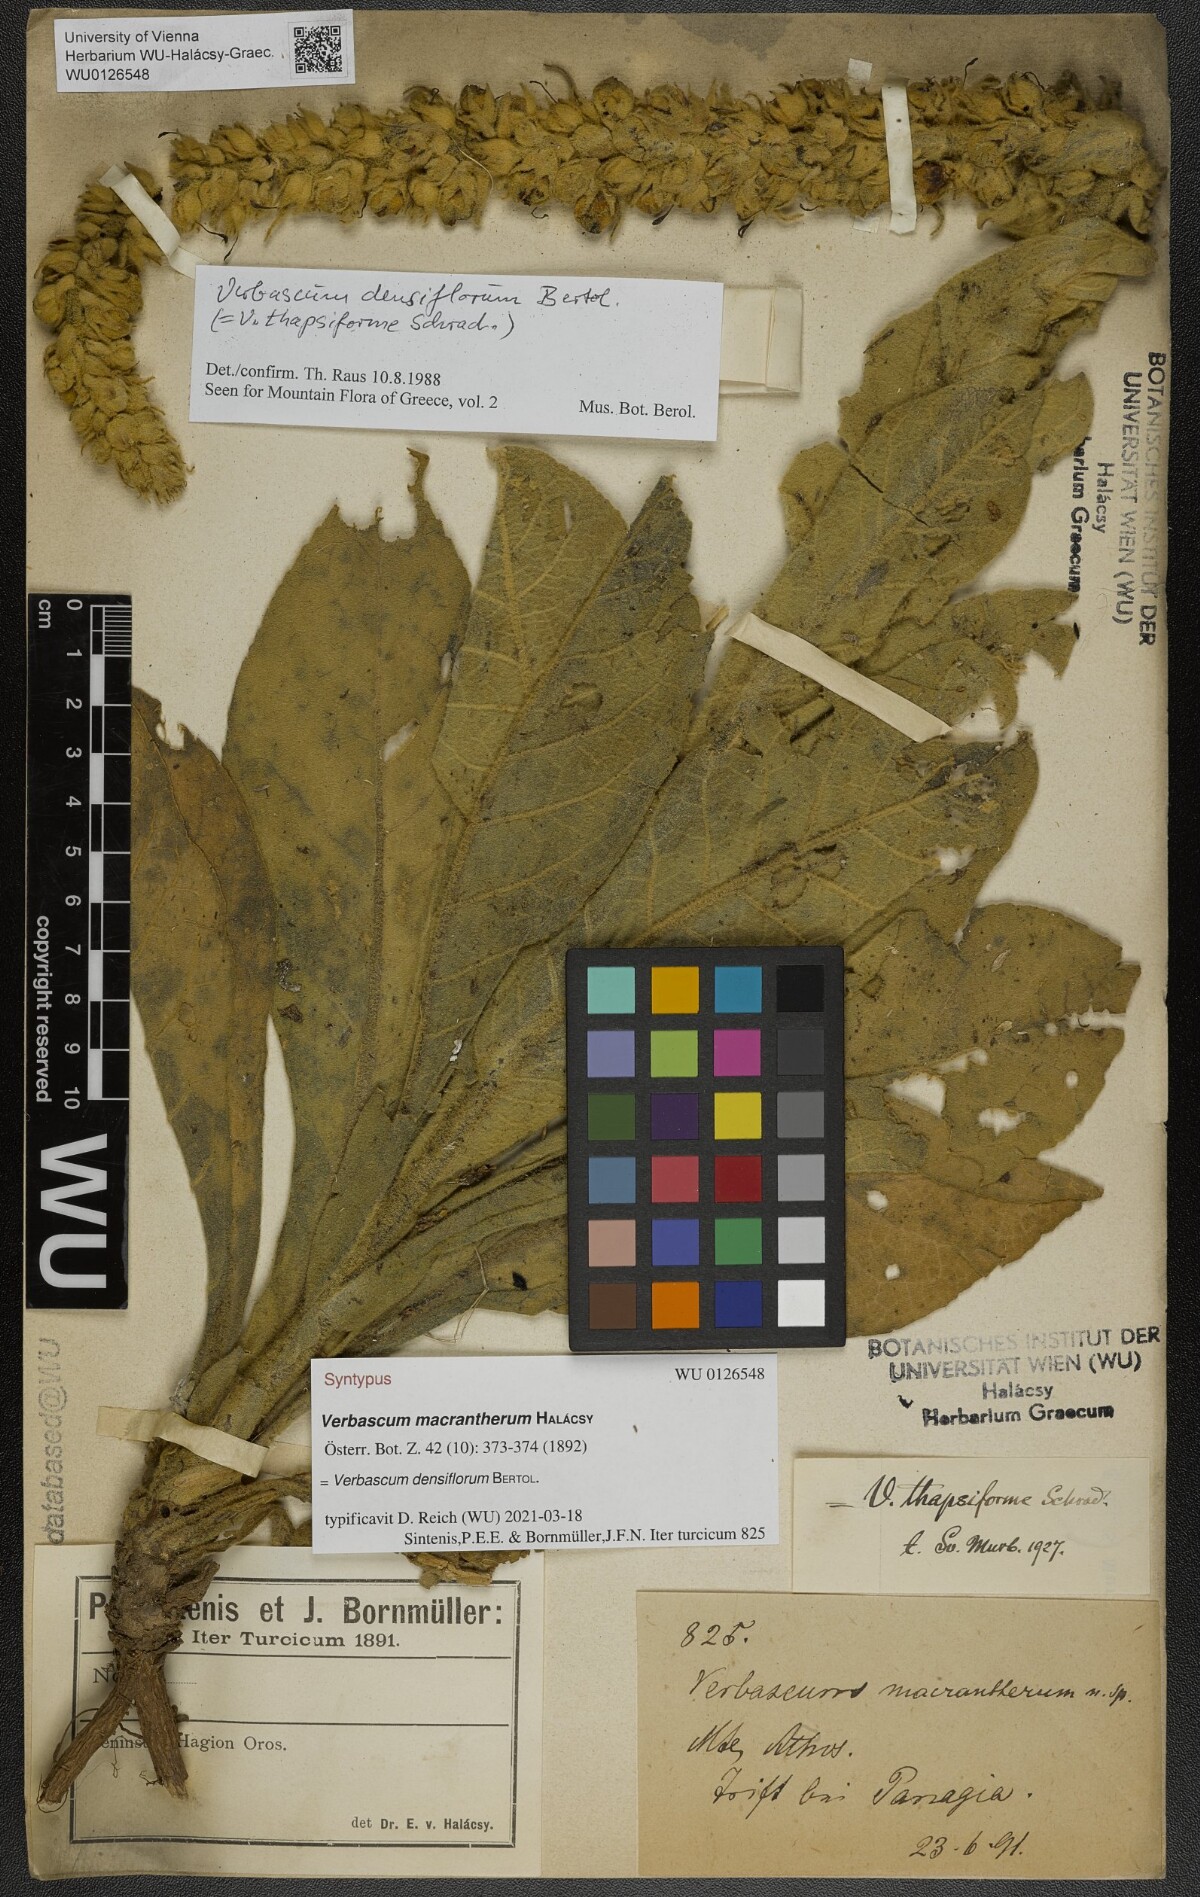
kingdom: Plantae
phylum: Tracheophyta
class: Magnoliopsida
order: Lamiales
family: Scrophulariaceae
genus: Verbascum
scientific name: Verbascum densiflorum
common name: Dense-flowered mullein
